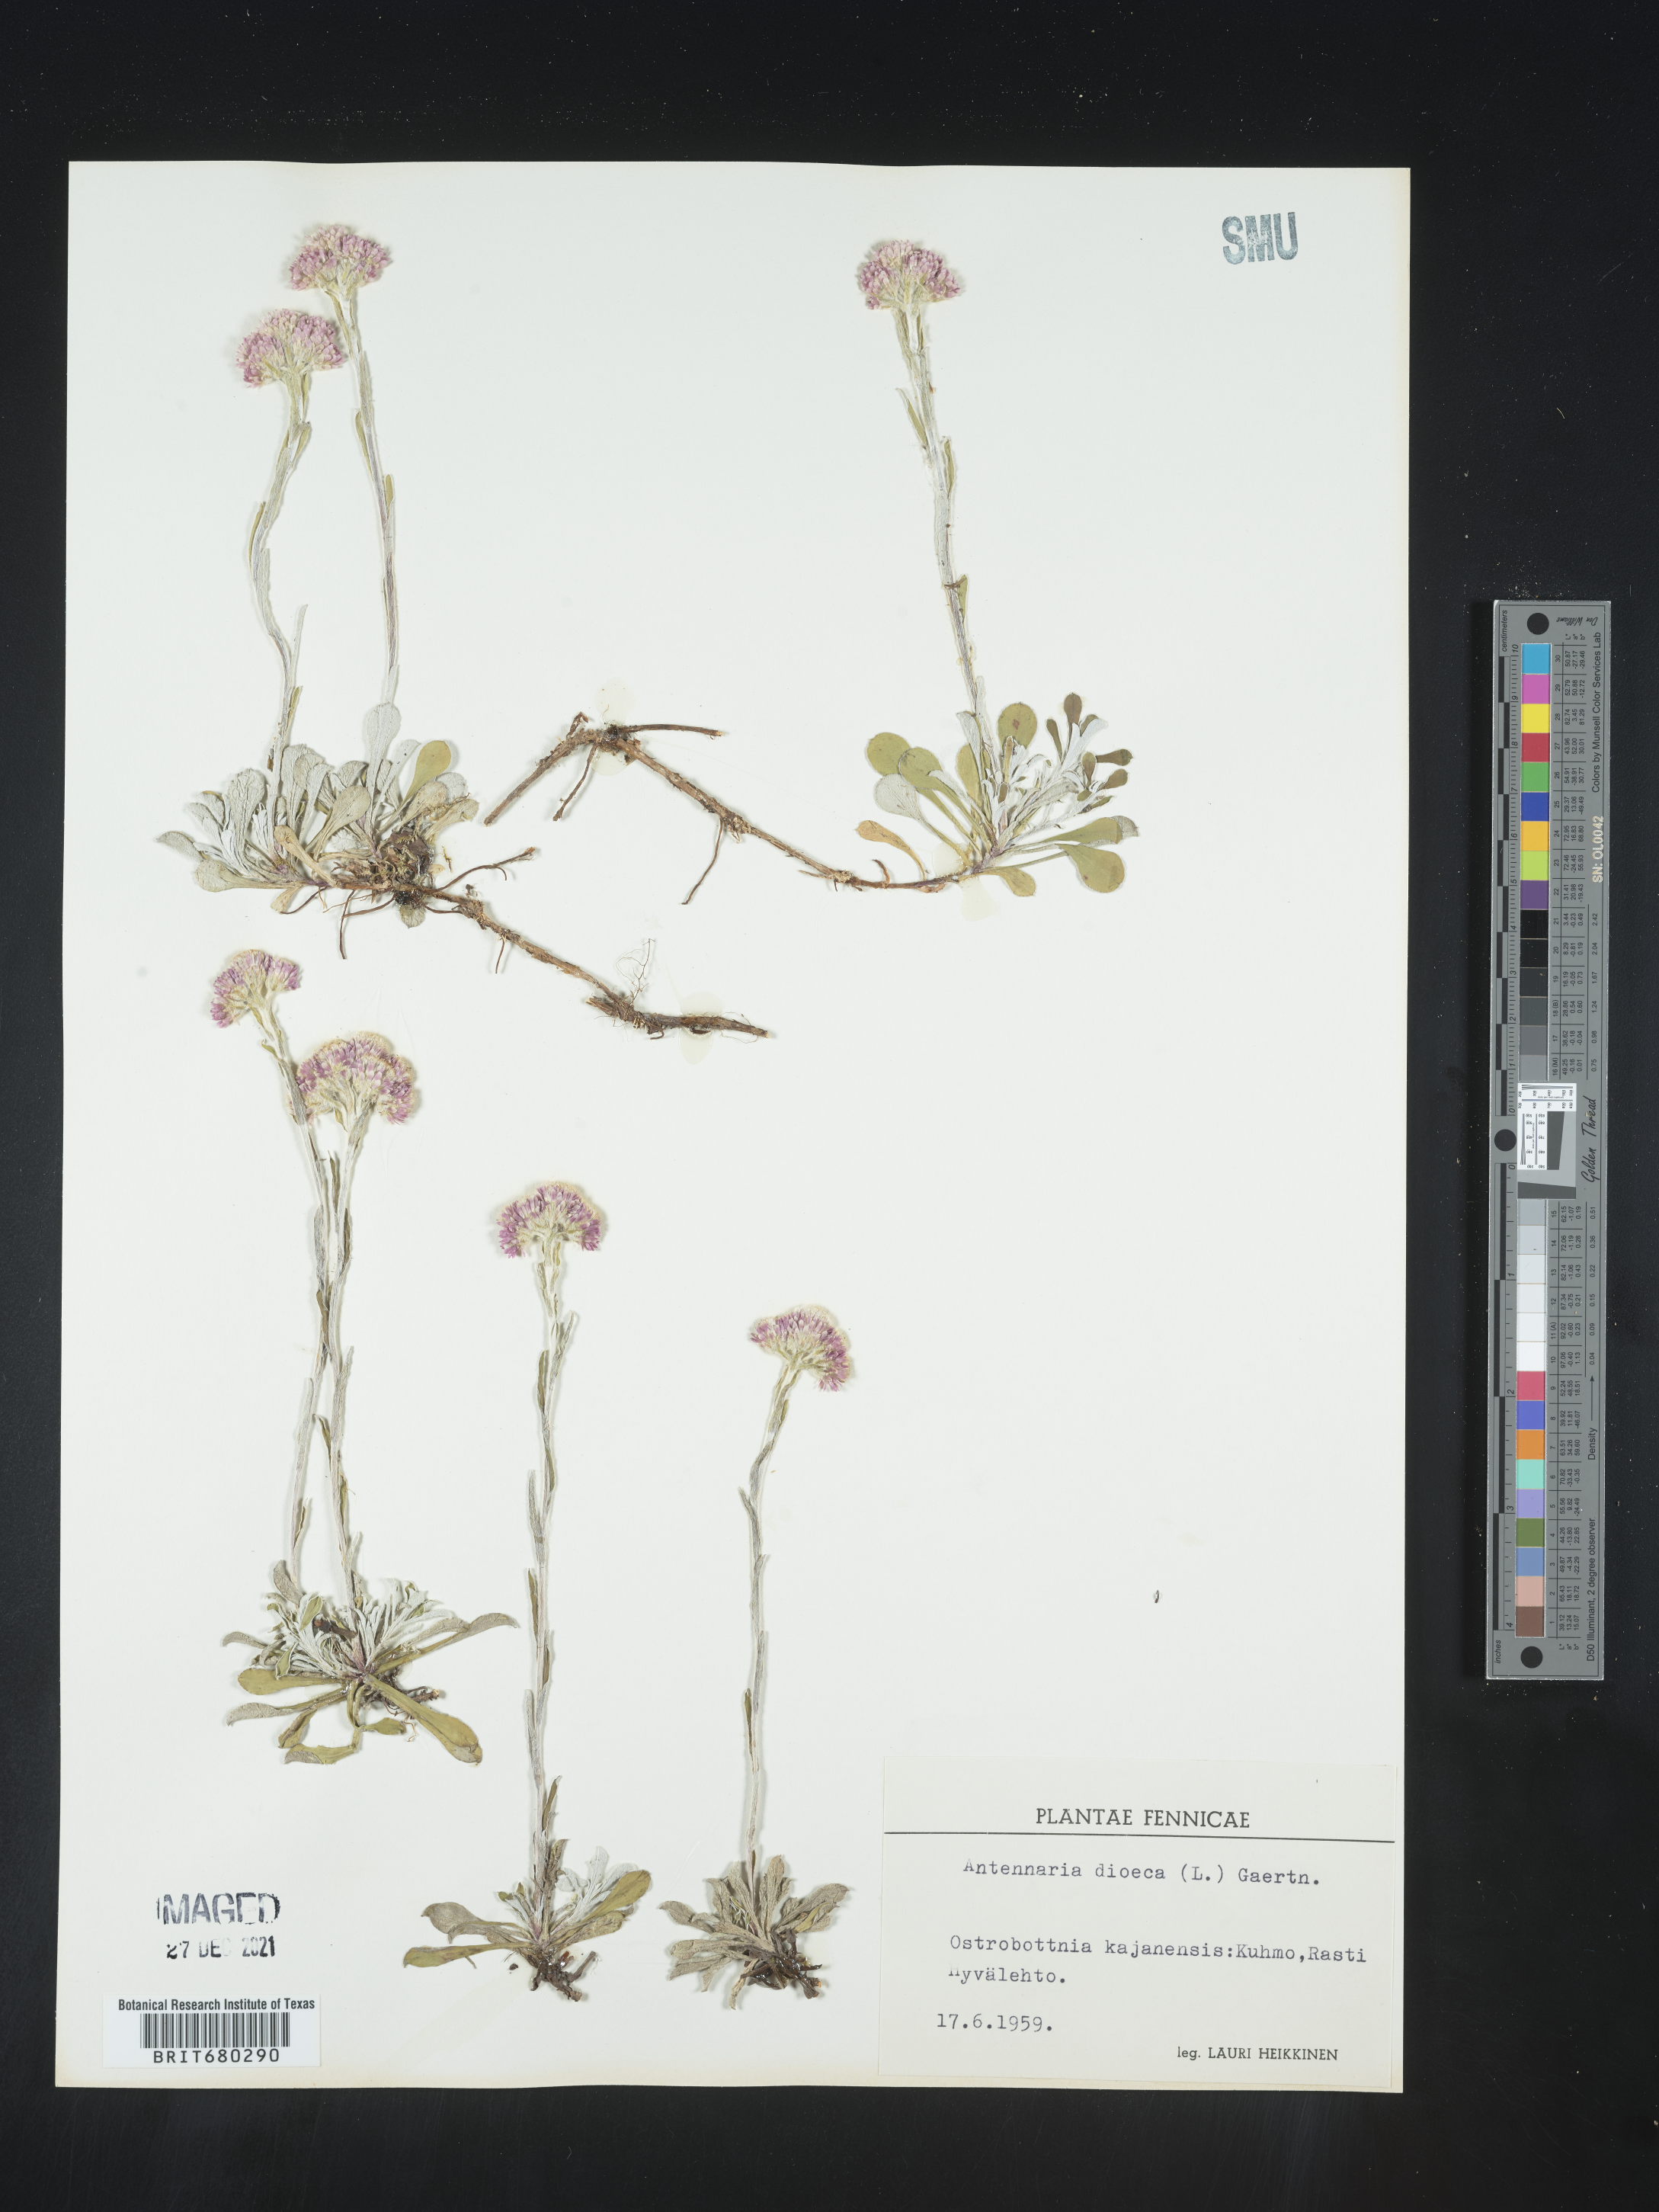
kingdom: Plantae
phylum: Tracheophyta
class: Magnoliopsida
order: Asterales
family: Asteraceae
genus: Antennaria
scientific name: Antennaria dioica
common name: Mountain everlasting
